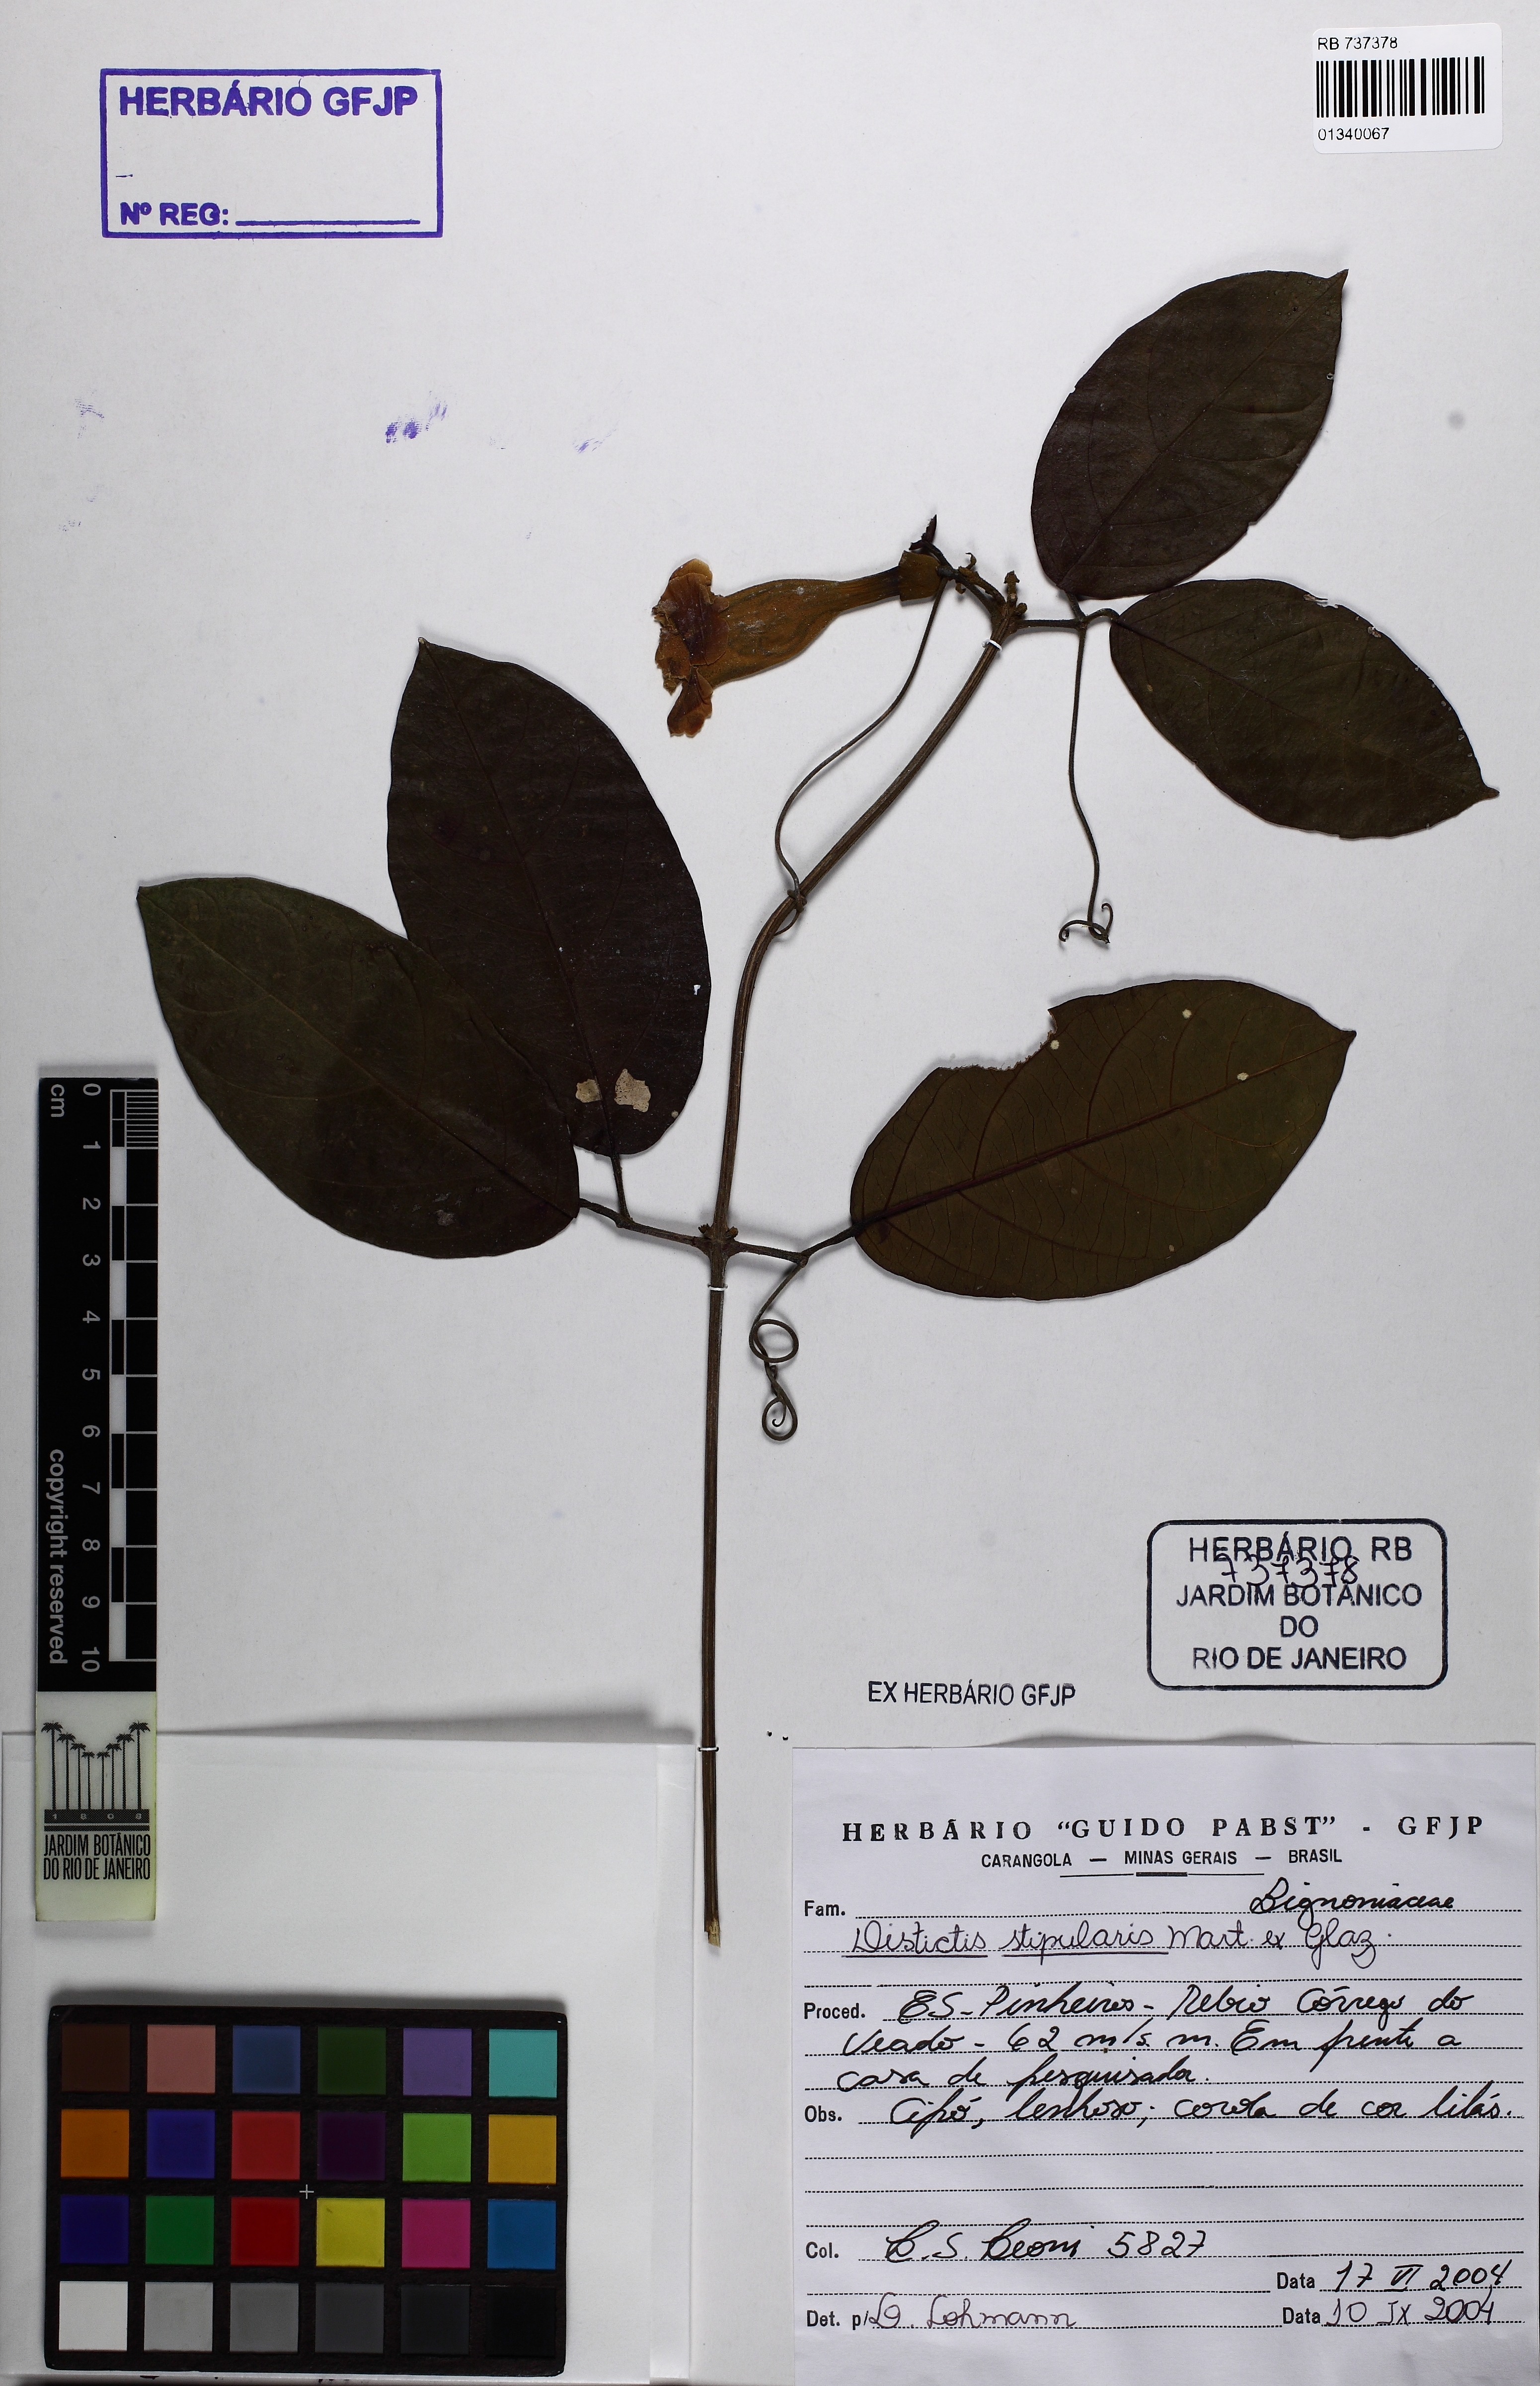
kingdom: Plantae
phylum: Tracheophyta
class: Magnoliopsida
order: Lamiales
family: Bignoniaceae
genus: Amphilophium
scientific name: Amphilophium frutescens
